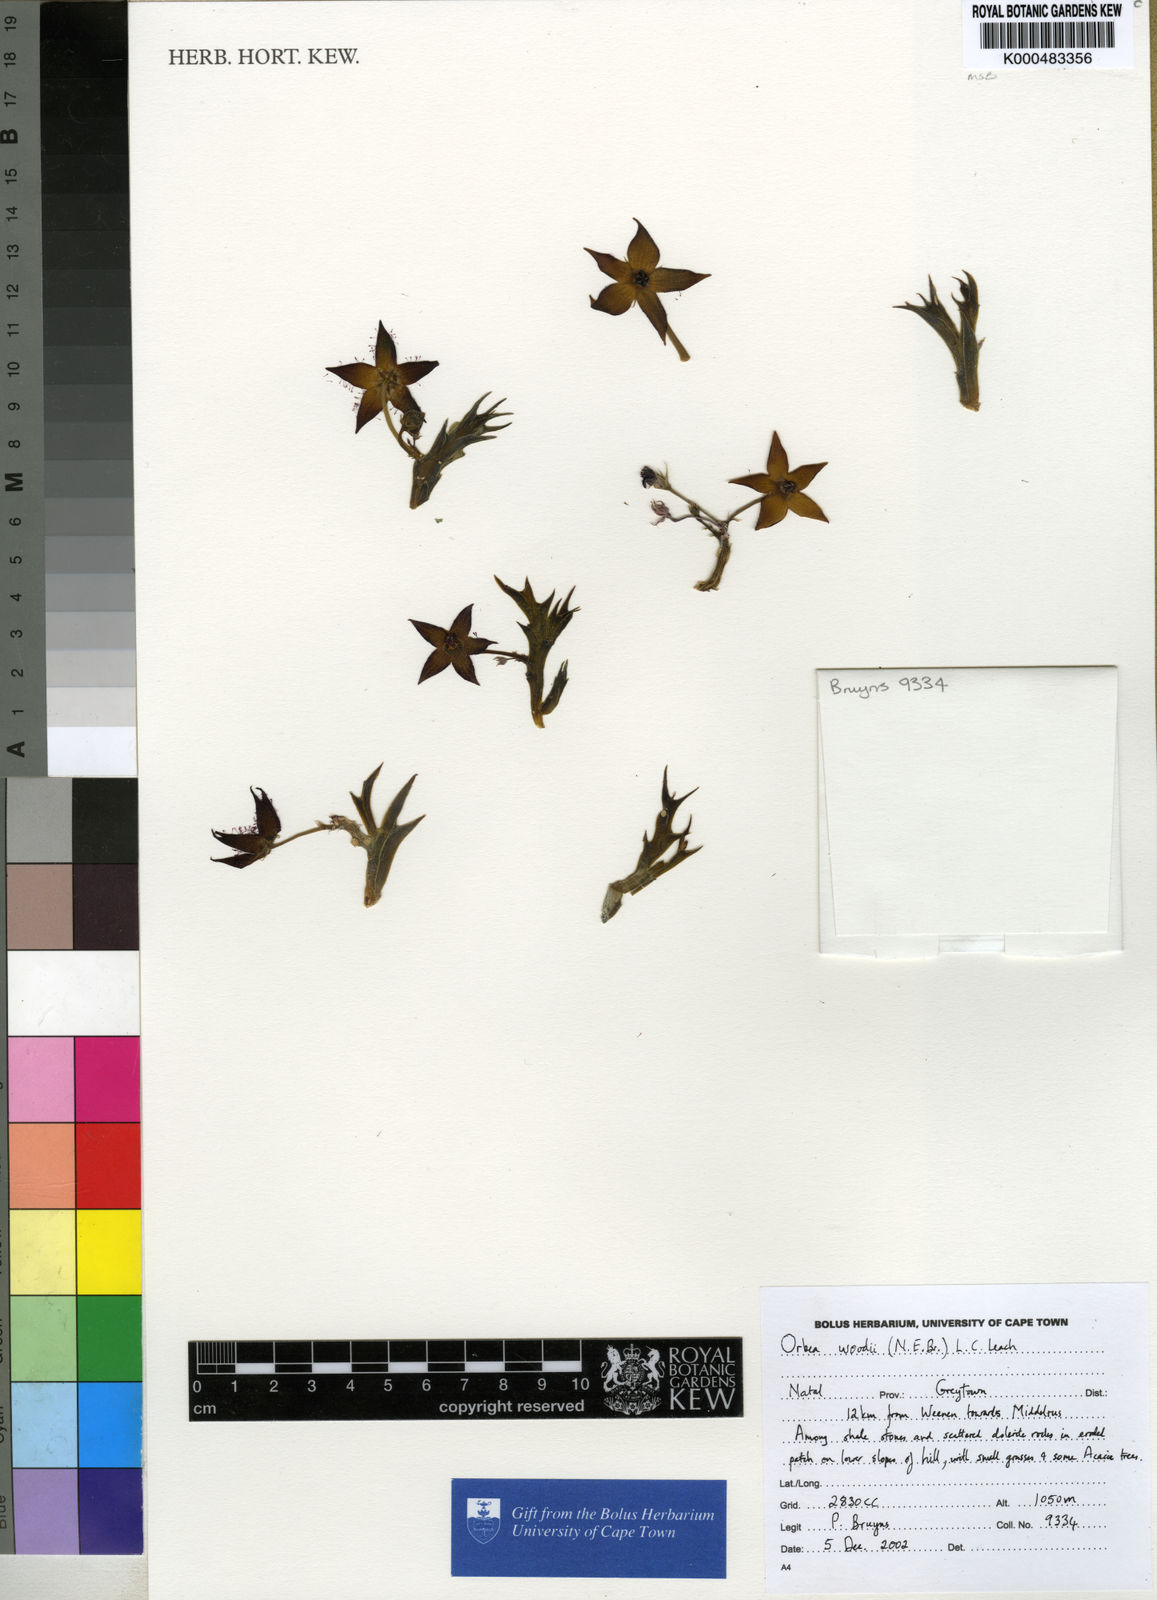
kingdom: Plantae
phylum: Tracheophyta
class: Magnoliopsida
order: Gentianales
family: Apocynaceae
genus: Ceropegia
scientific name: Ceropegia woodiana
